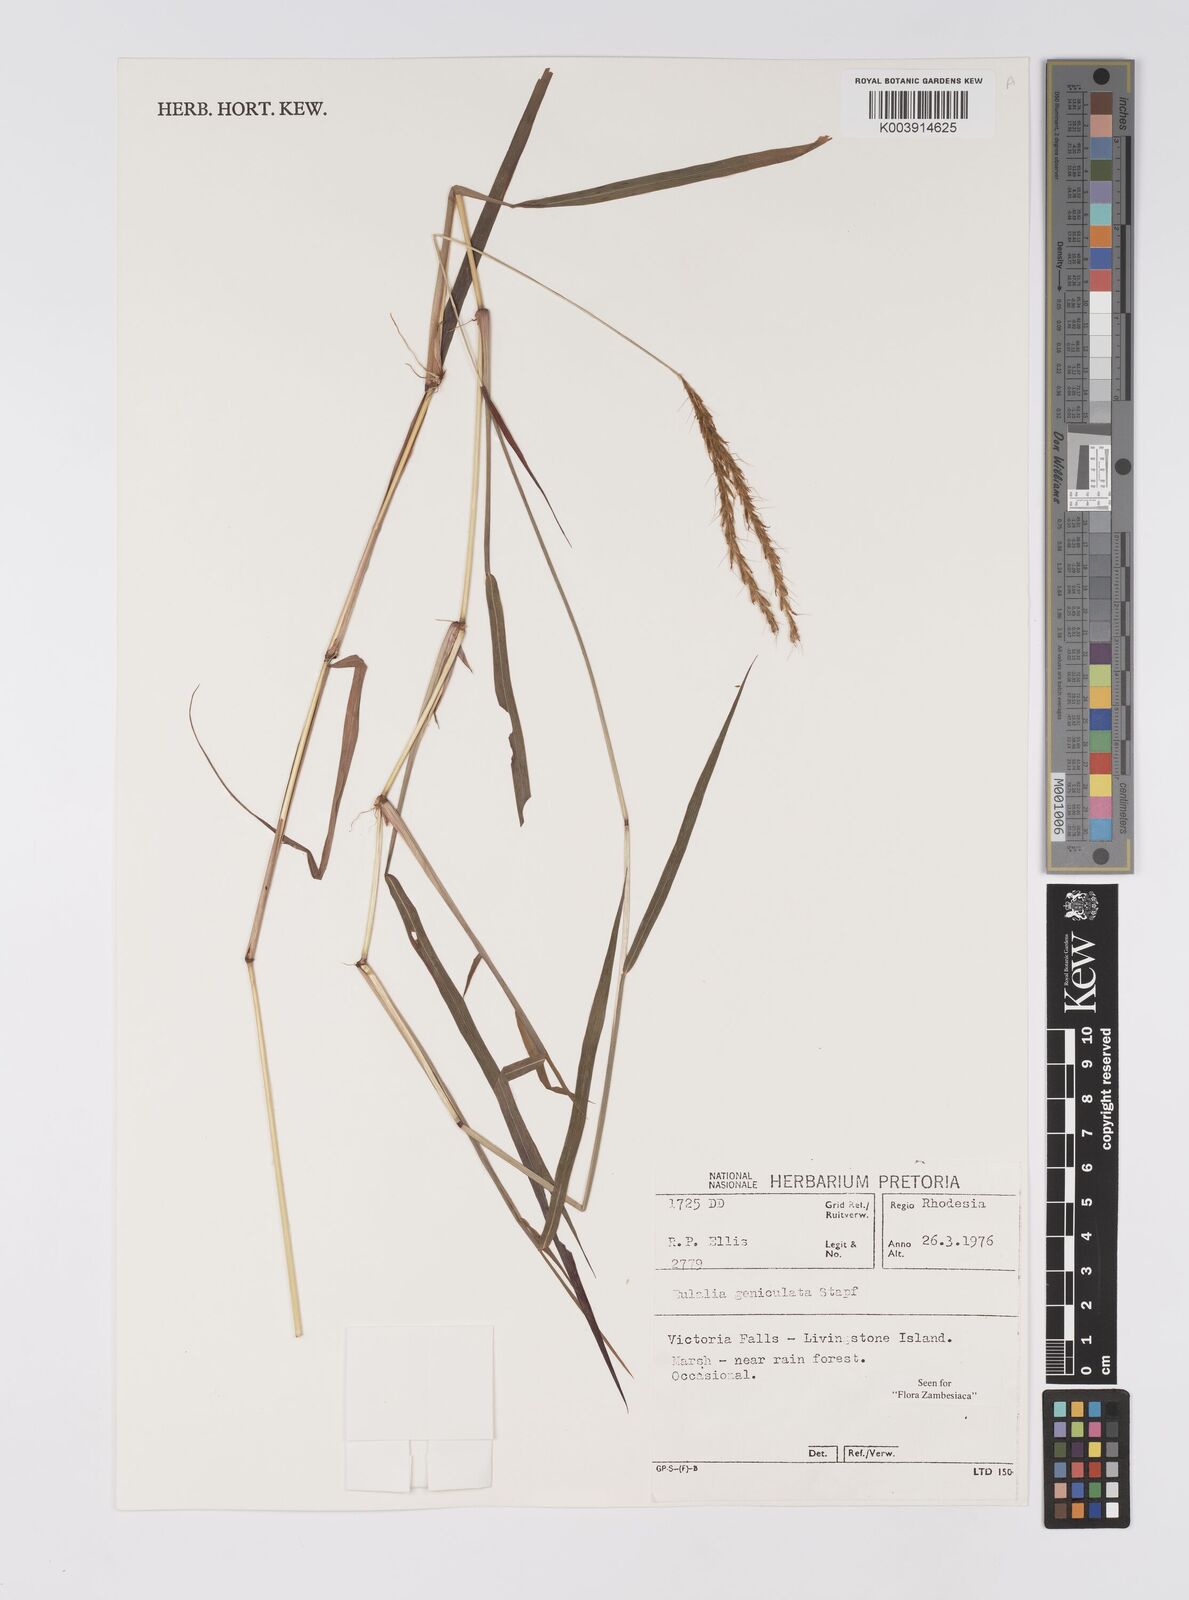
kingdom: Plantae
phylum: Tracheophyta
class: Liliopsida
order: Poales
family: Poaceae
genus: Eulalia
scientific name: Eulalia aurea
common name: Silky browntop
